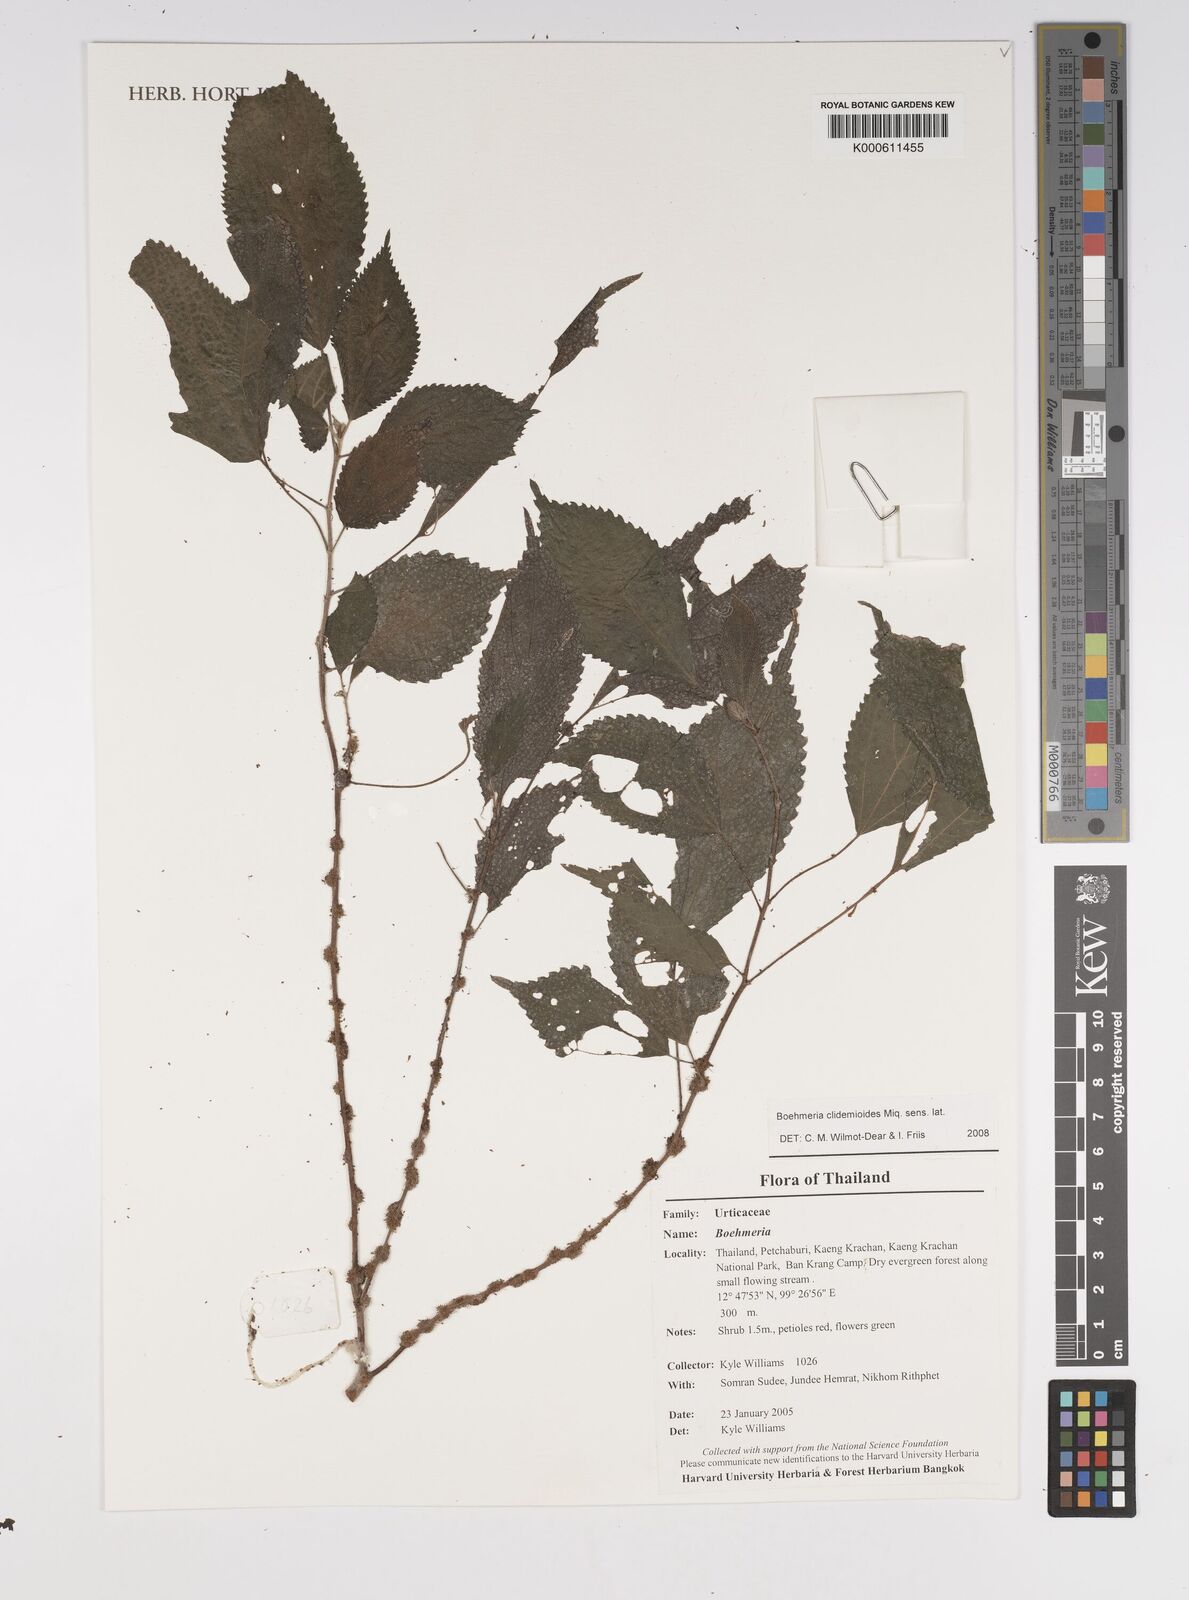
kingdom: Plantae
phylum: Tracheophyta
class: Magnoliopsida
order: Rosales
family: Urticaceae
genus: Boehmeria
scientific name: Boehmeria clidemioides
